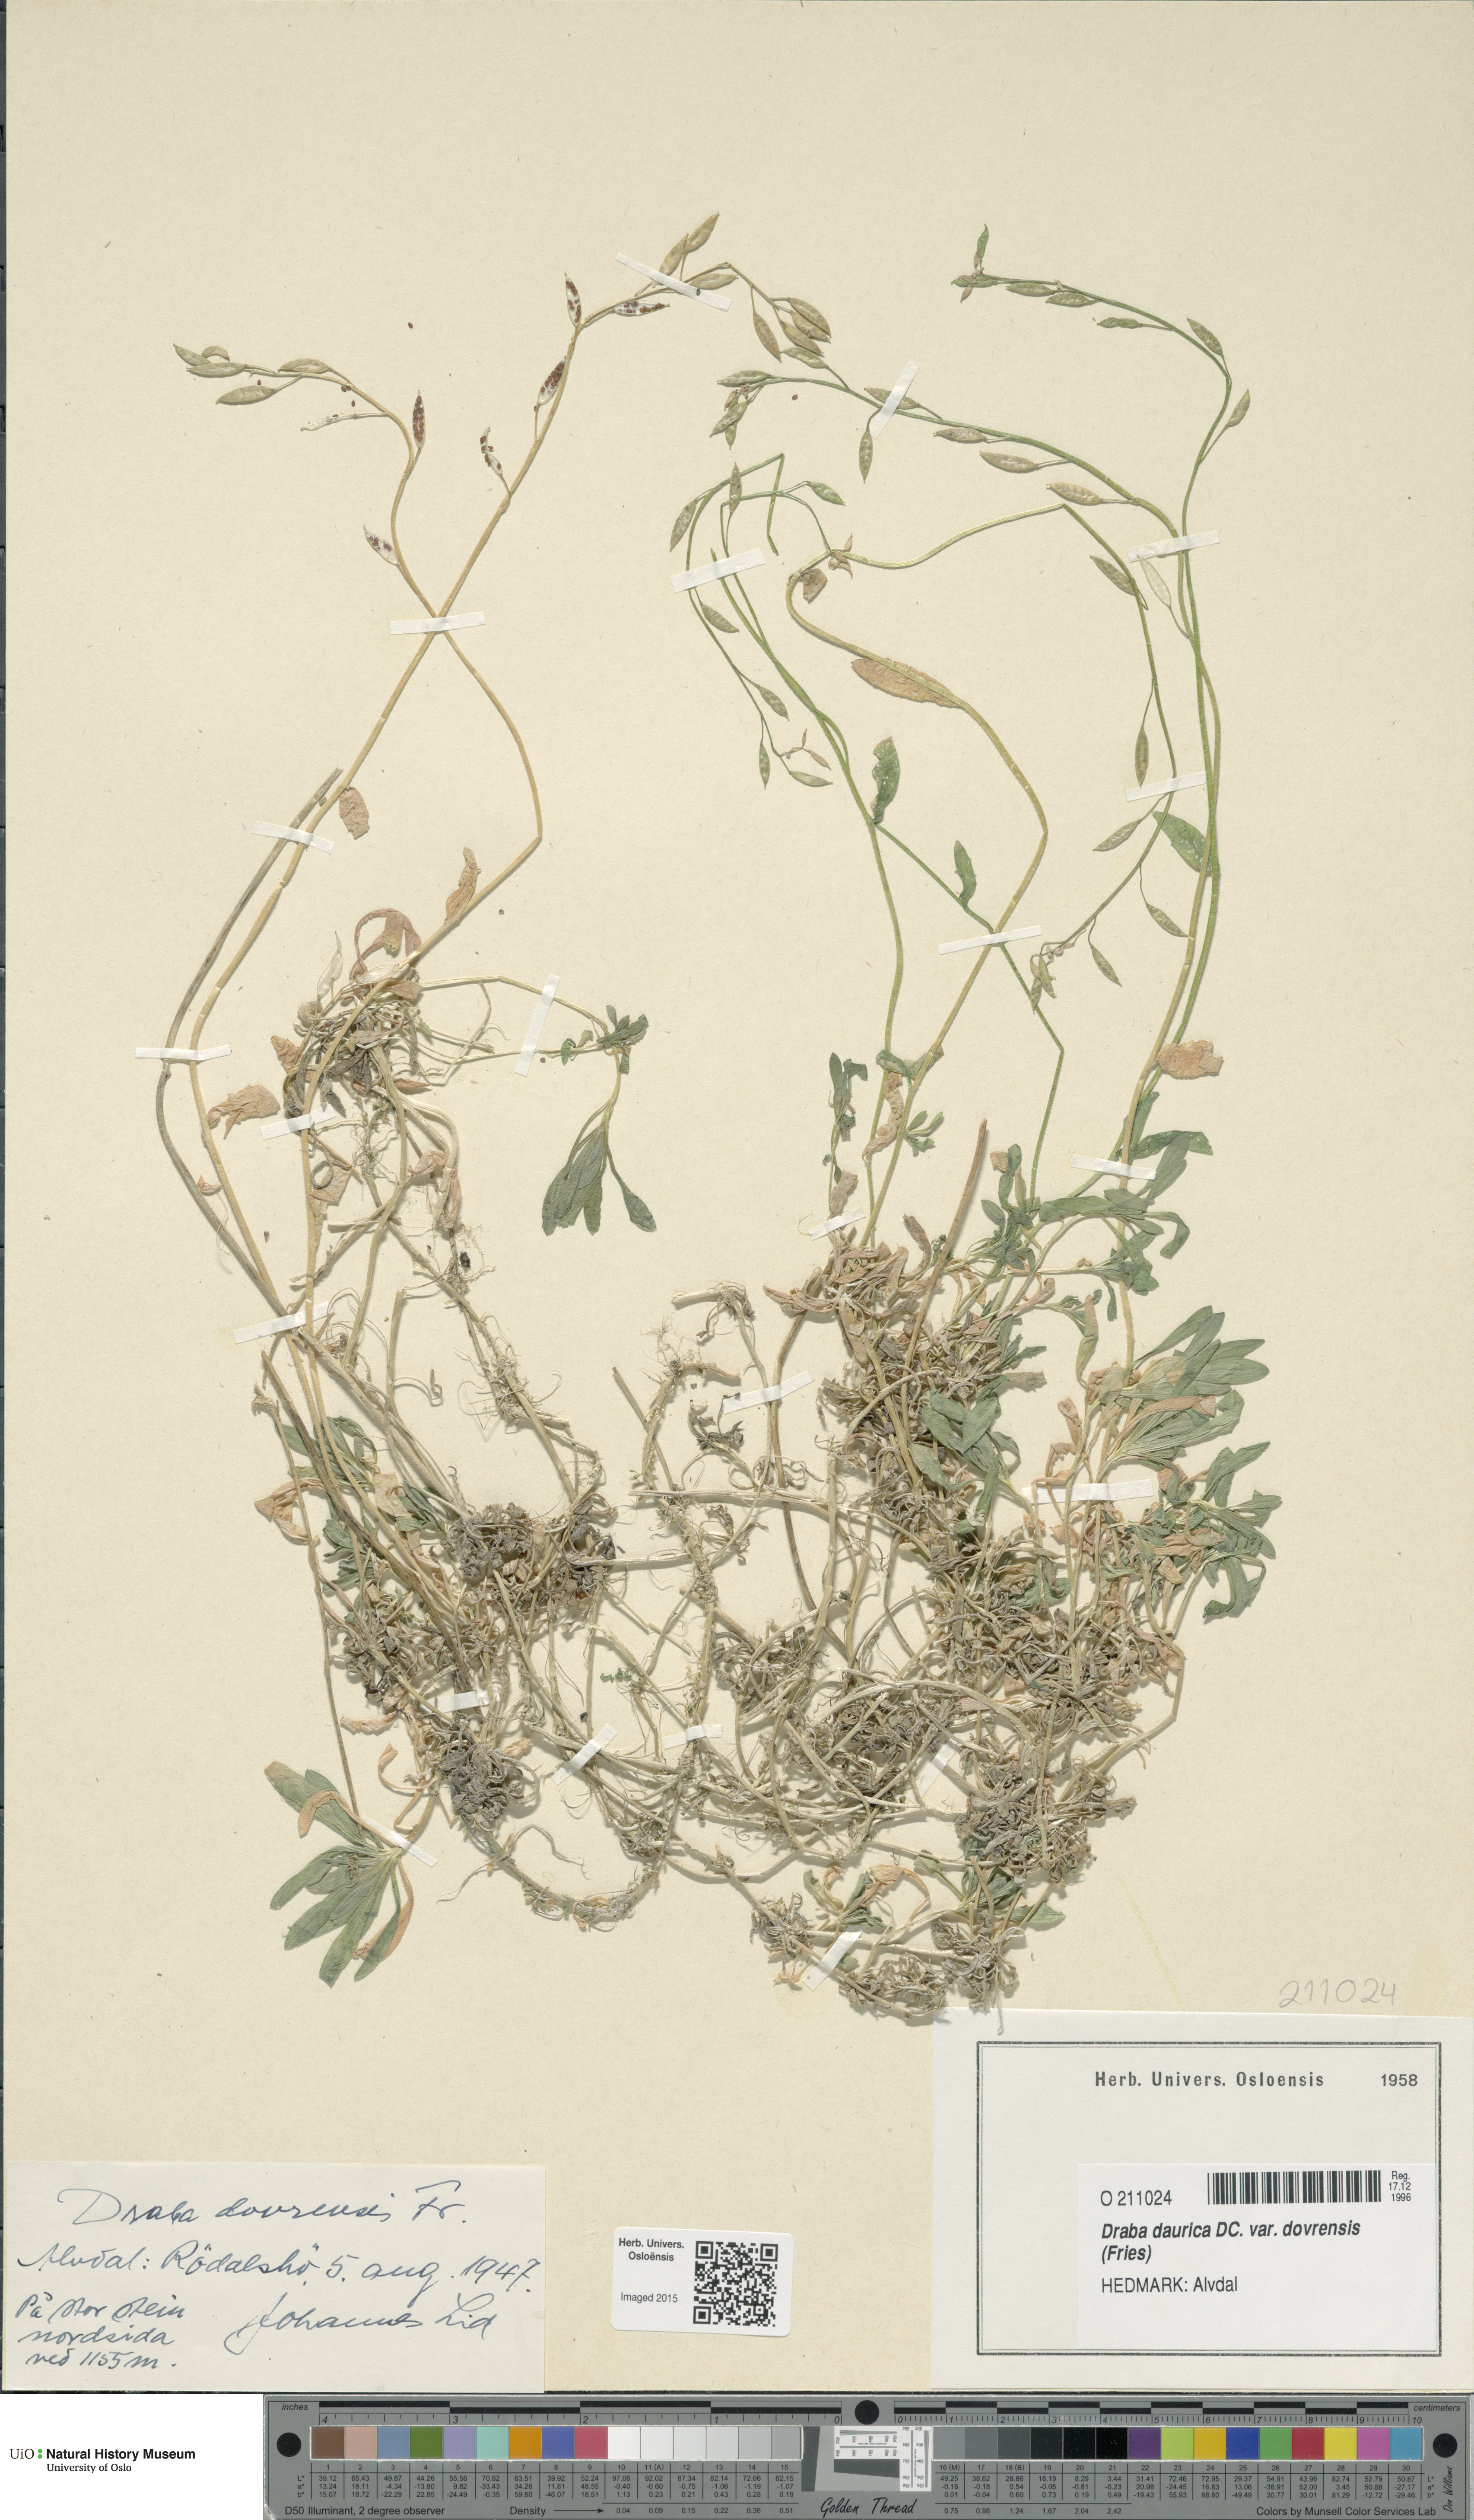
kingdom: Plantae
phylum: Tracheophyta
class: Magnoliopsida
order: Brassicales
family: Brassicaceae
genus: Draba
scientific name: Draba glabella
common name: Glaucous draba
